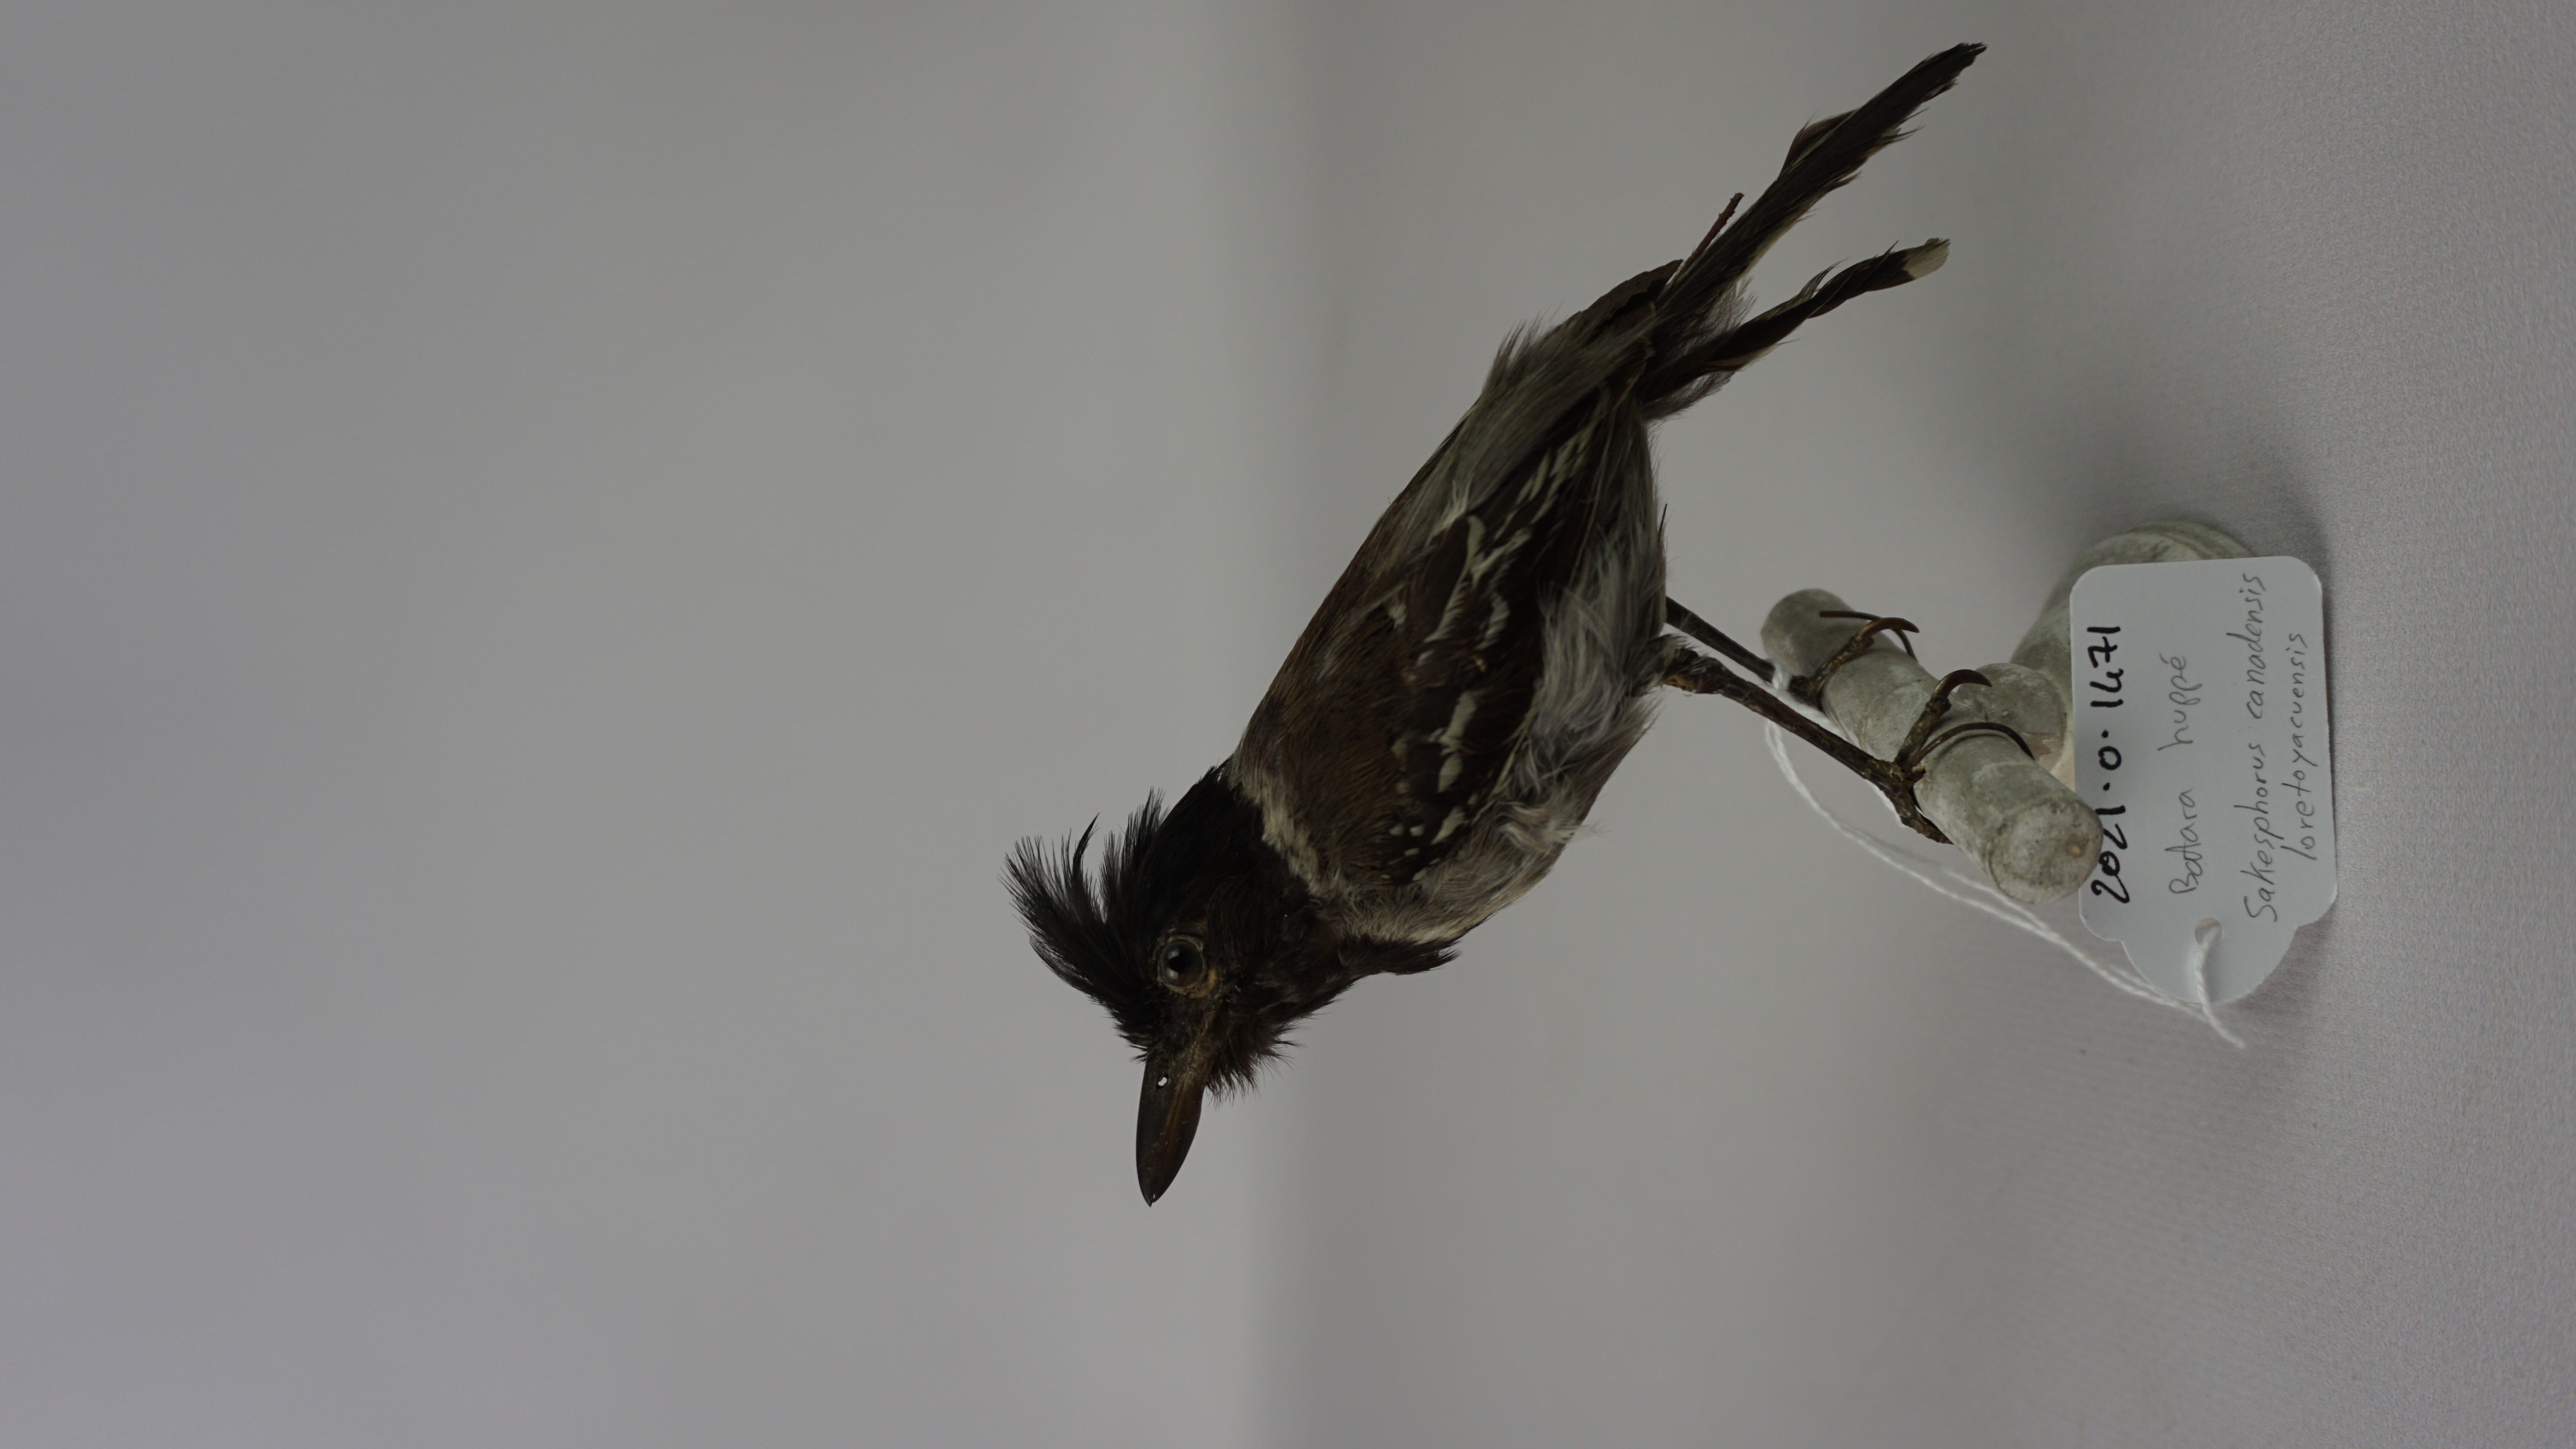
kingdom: Animalia
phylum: Chordata
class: Aves
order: Passeriformes
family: Thamnophilidae
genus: Sakesphorus
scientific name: Sakesphorus canadensis
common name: Black-crested antshrike
